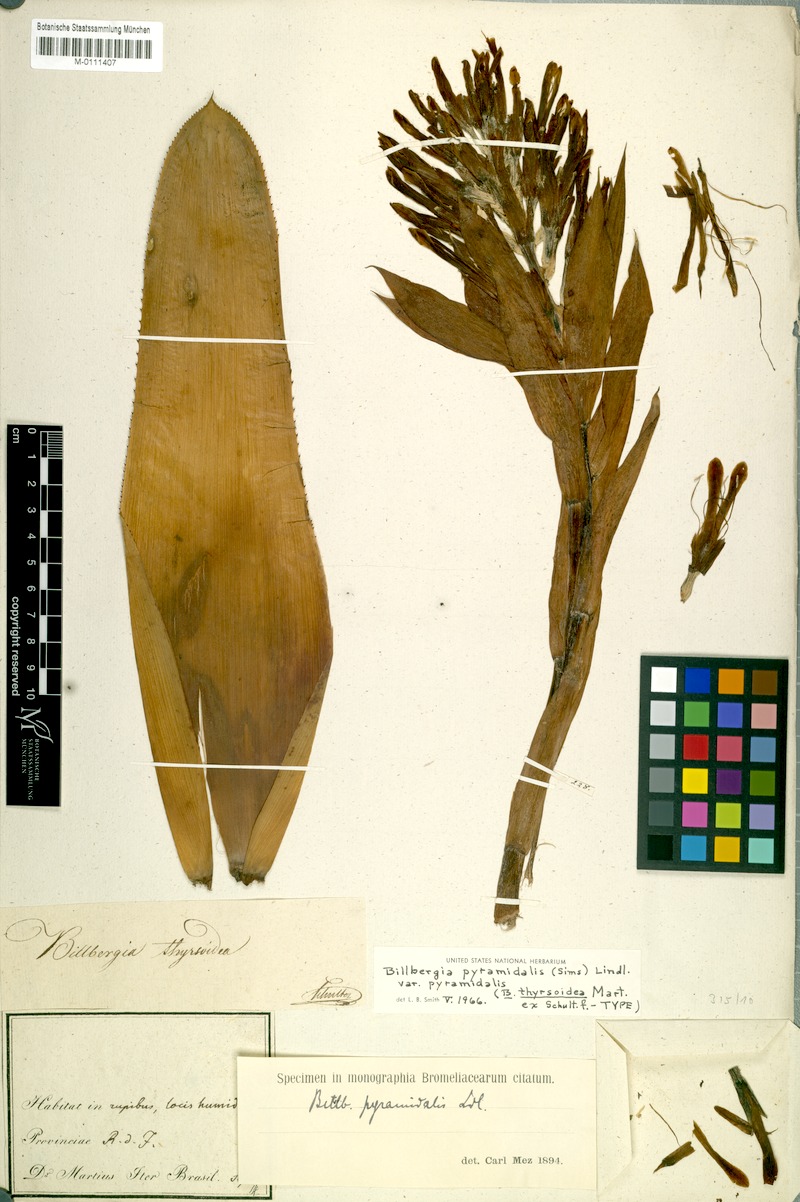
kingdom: Plantae
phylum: Tracheophyta
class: Liliopsida
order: Poales
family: Bromeliaceae
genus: Billbergia
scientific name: Billbergia pyramidalis
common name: Foolproofplant
